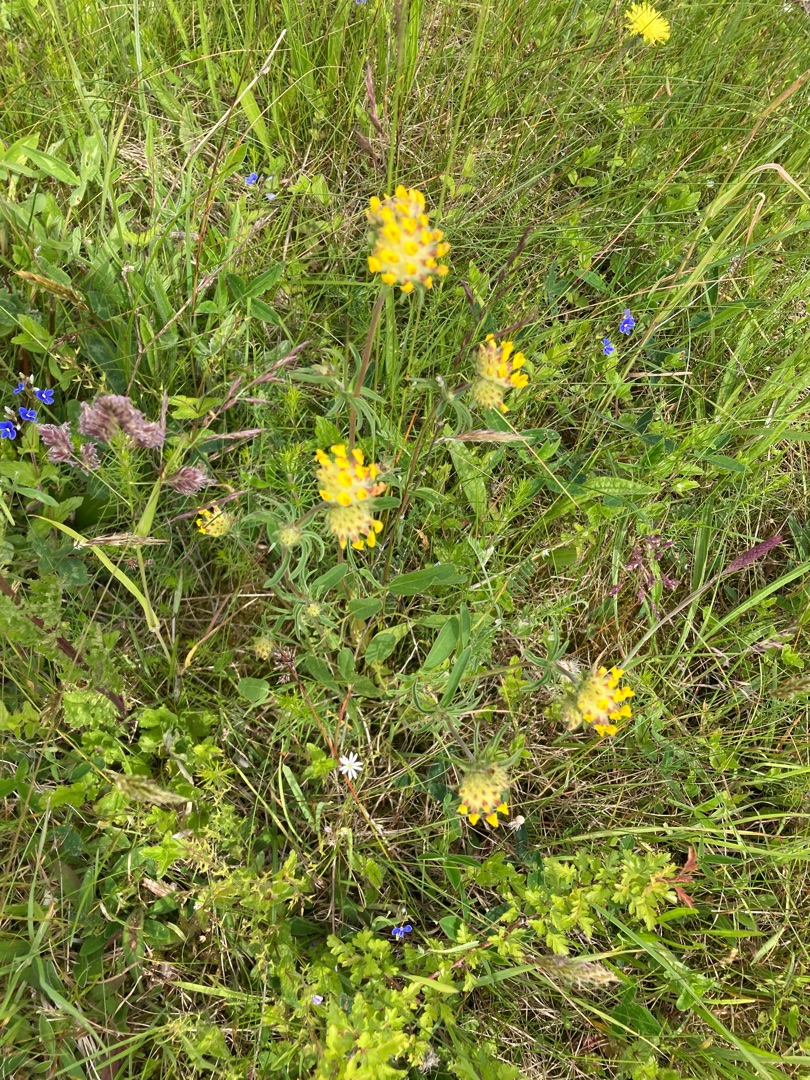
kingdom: Plantae
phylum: Tracheophyta
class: Magnoliopsida
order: Fabales
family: Fabaceae
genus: Anthyllis
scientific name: Anthyllis vulneraria
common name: Rundbælg
